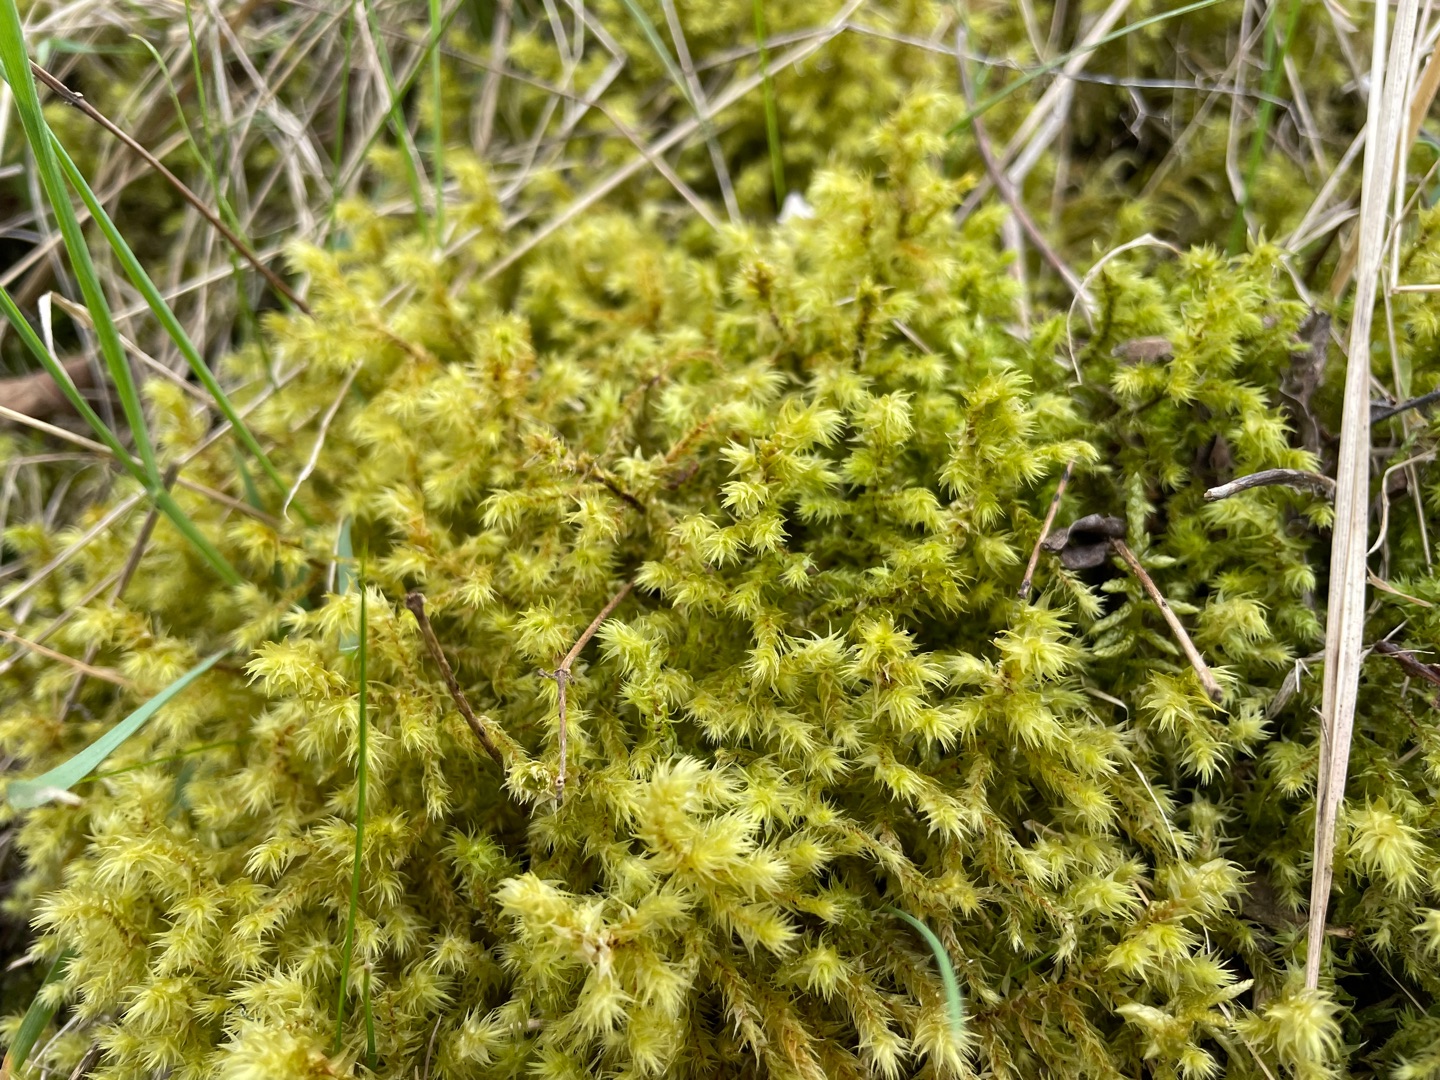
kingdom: Plantae
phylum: Bryophyta
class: Bryopsida
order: Hypnales
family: Hylocomiaceae
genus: Hylocomiadelphus
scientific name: Hylocomiadelphus triquetrus
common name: Stor kransemos
